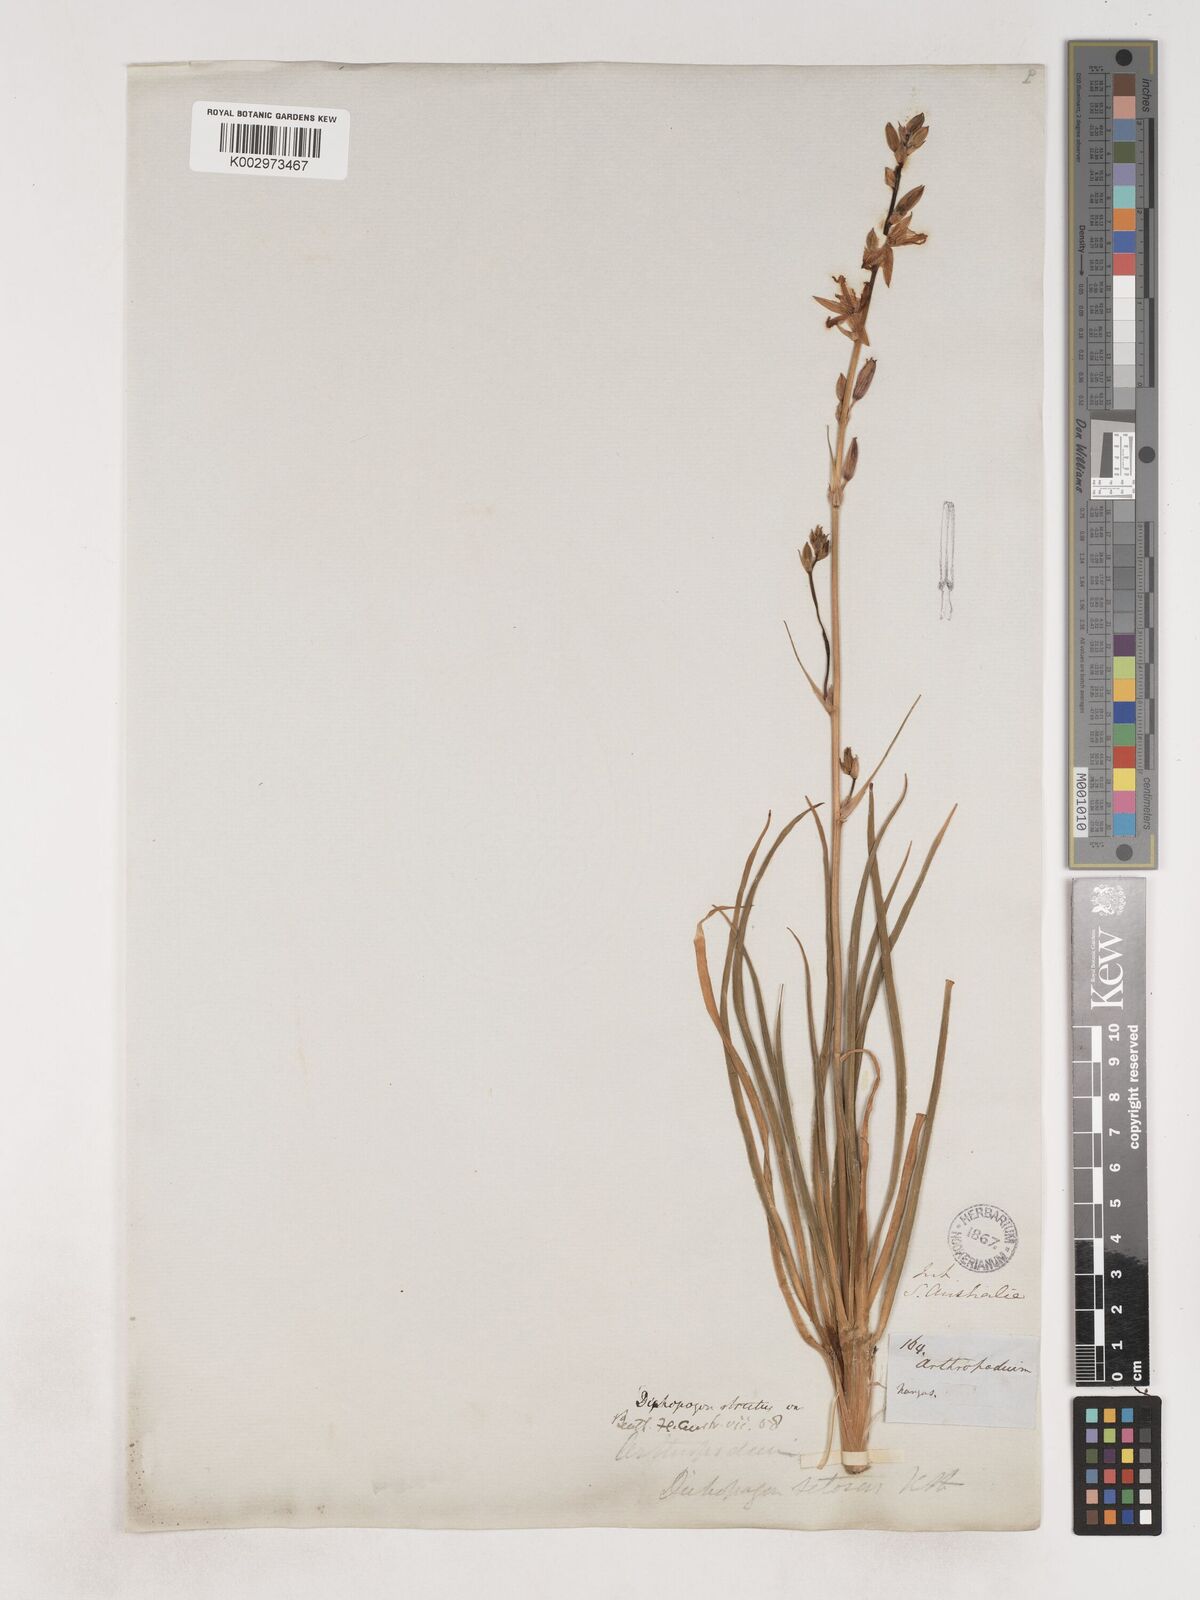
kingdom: Plantae
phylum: Tracheophyta
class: Liliopsida
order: Asparagales
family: Asparagaceae
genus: Arthropodium
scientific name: Arthropodium strictum
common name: Chocolate-lily
